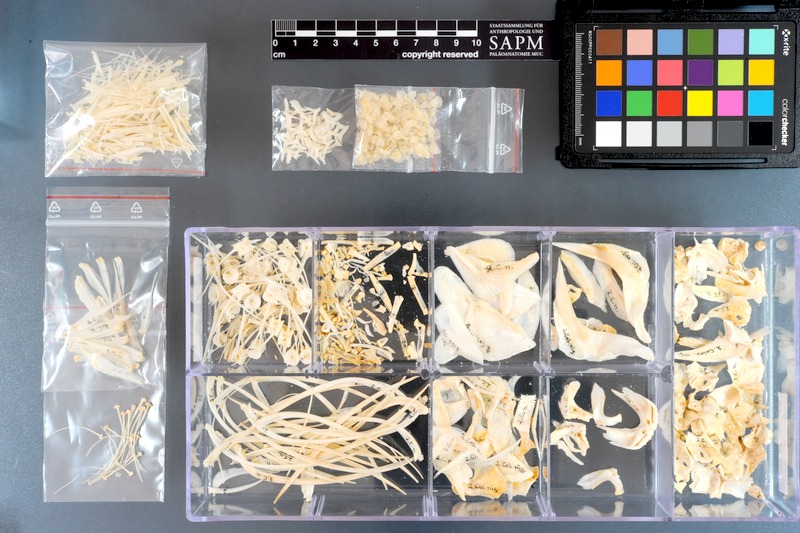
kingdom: Animalia
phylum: Chordata
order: Characiformes
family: Serrasalmidae
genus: Colossoma
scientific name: Colossoma macropomum
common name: Blackfin pacu
